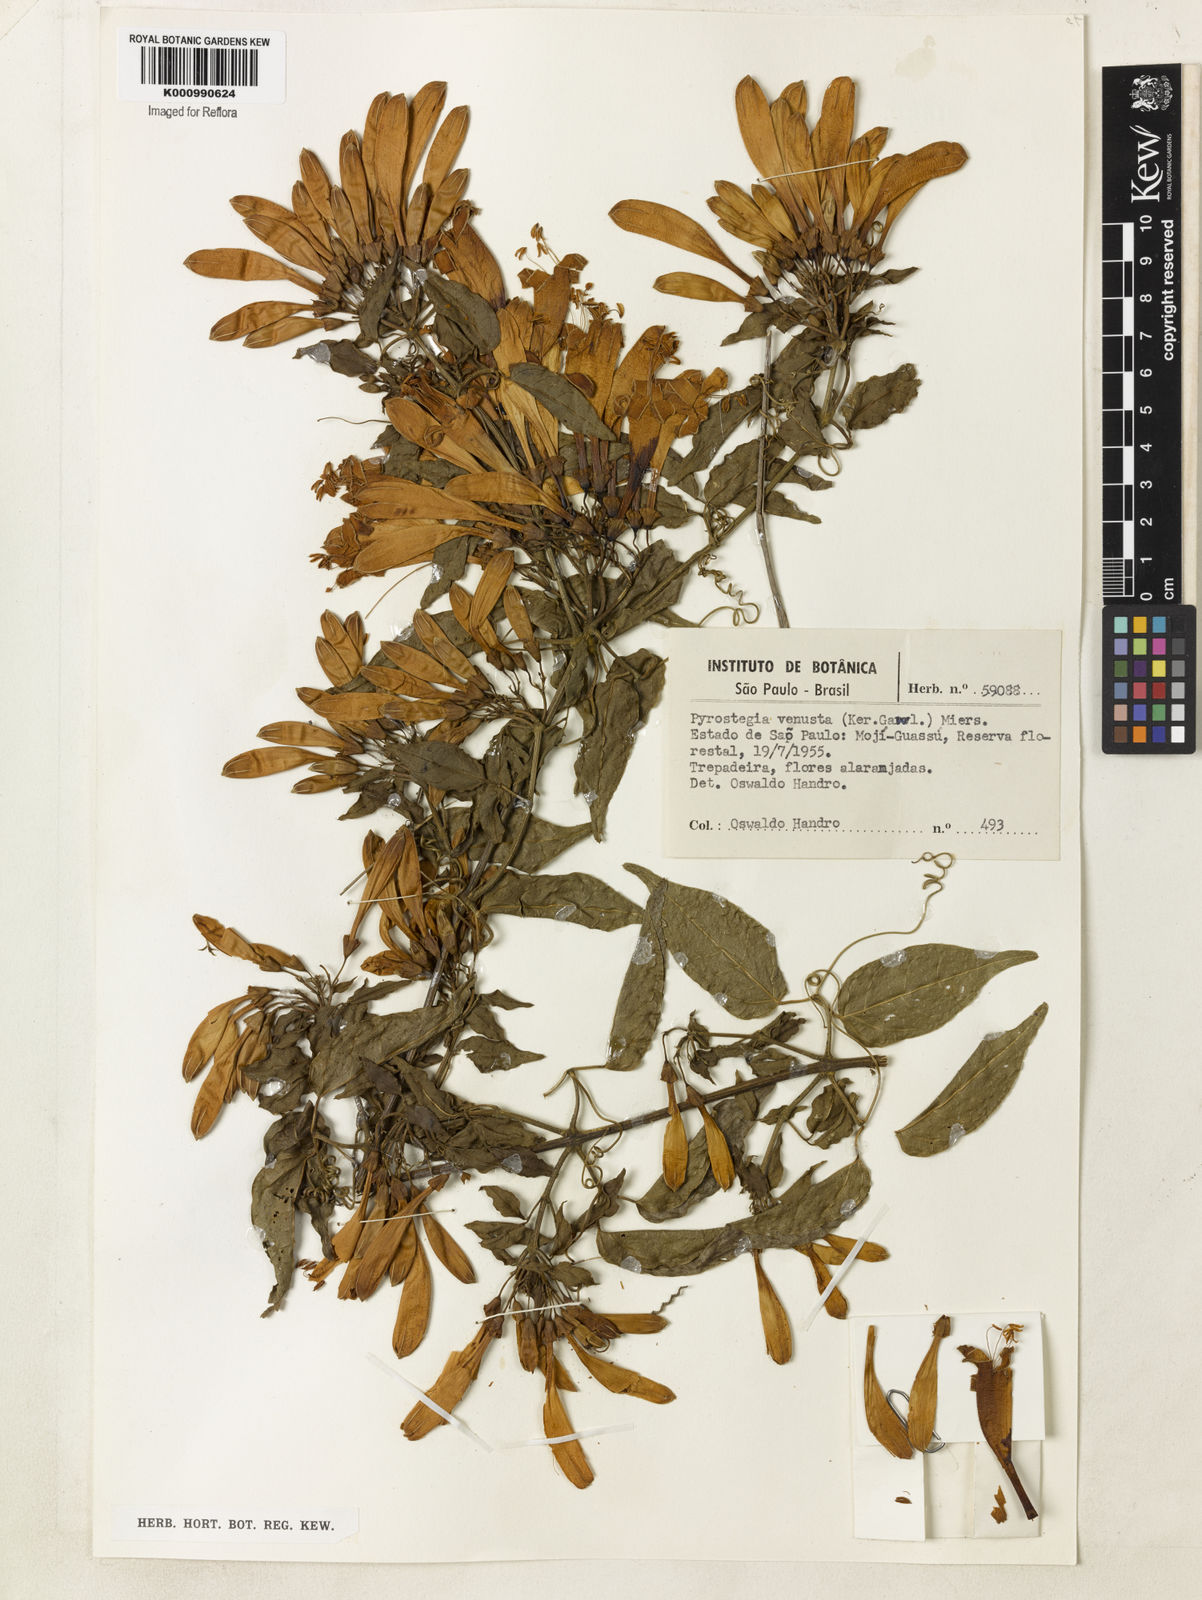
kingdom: Plantae
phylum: Tracheophyta
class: Magnoliopsida
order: Lamiales
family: Bignoniaceae
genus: Pyrostegia
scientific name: Pyrostegia venusta
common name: Flamevine
